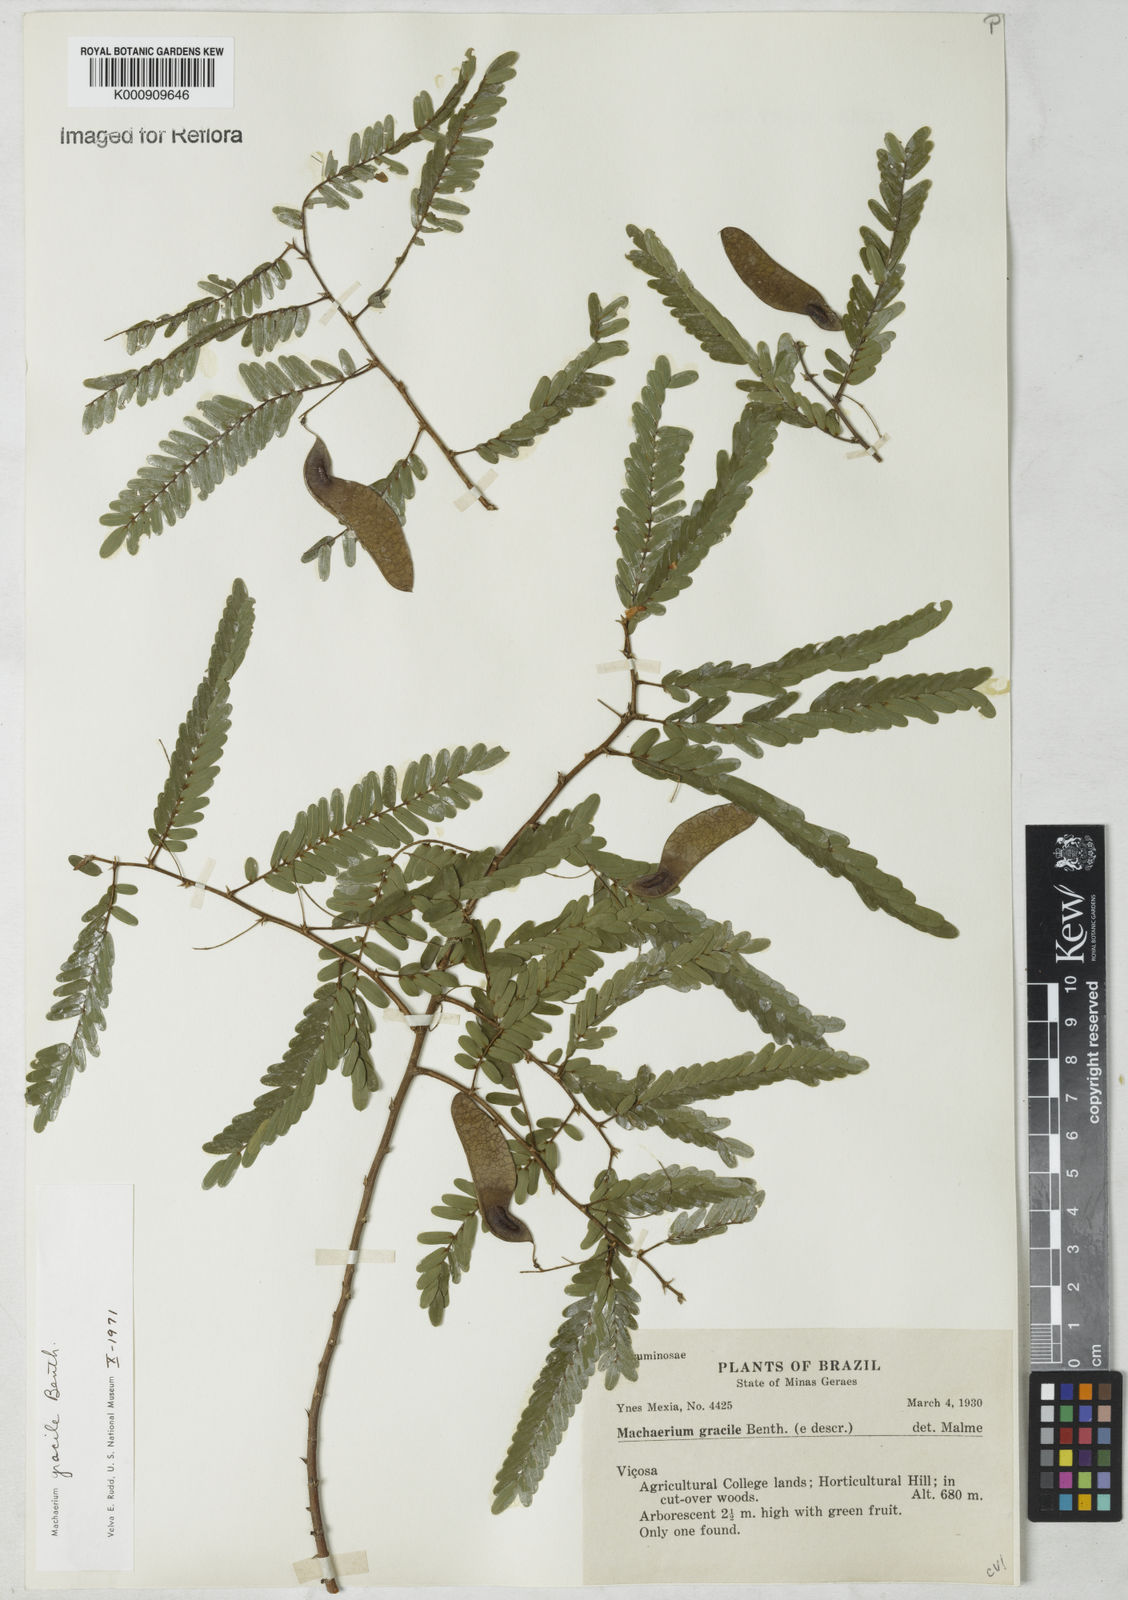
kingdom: Plantae
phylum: Tracheophyta
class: Magnoliopsida
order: Fabales
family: Fabaceae
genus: Machaerium
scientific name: Machaerium gracile
